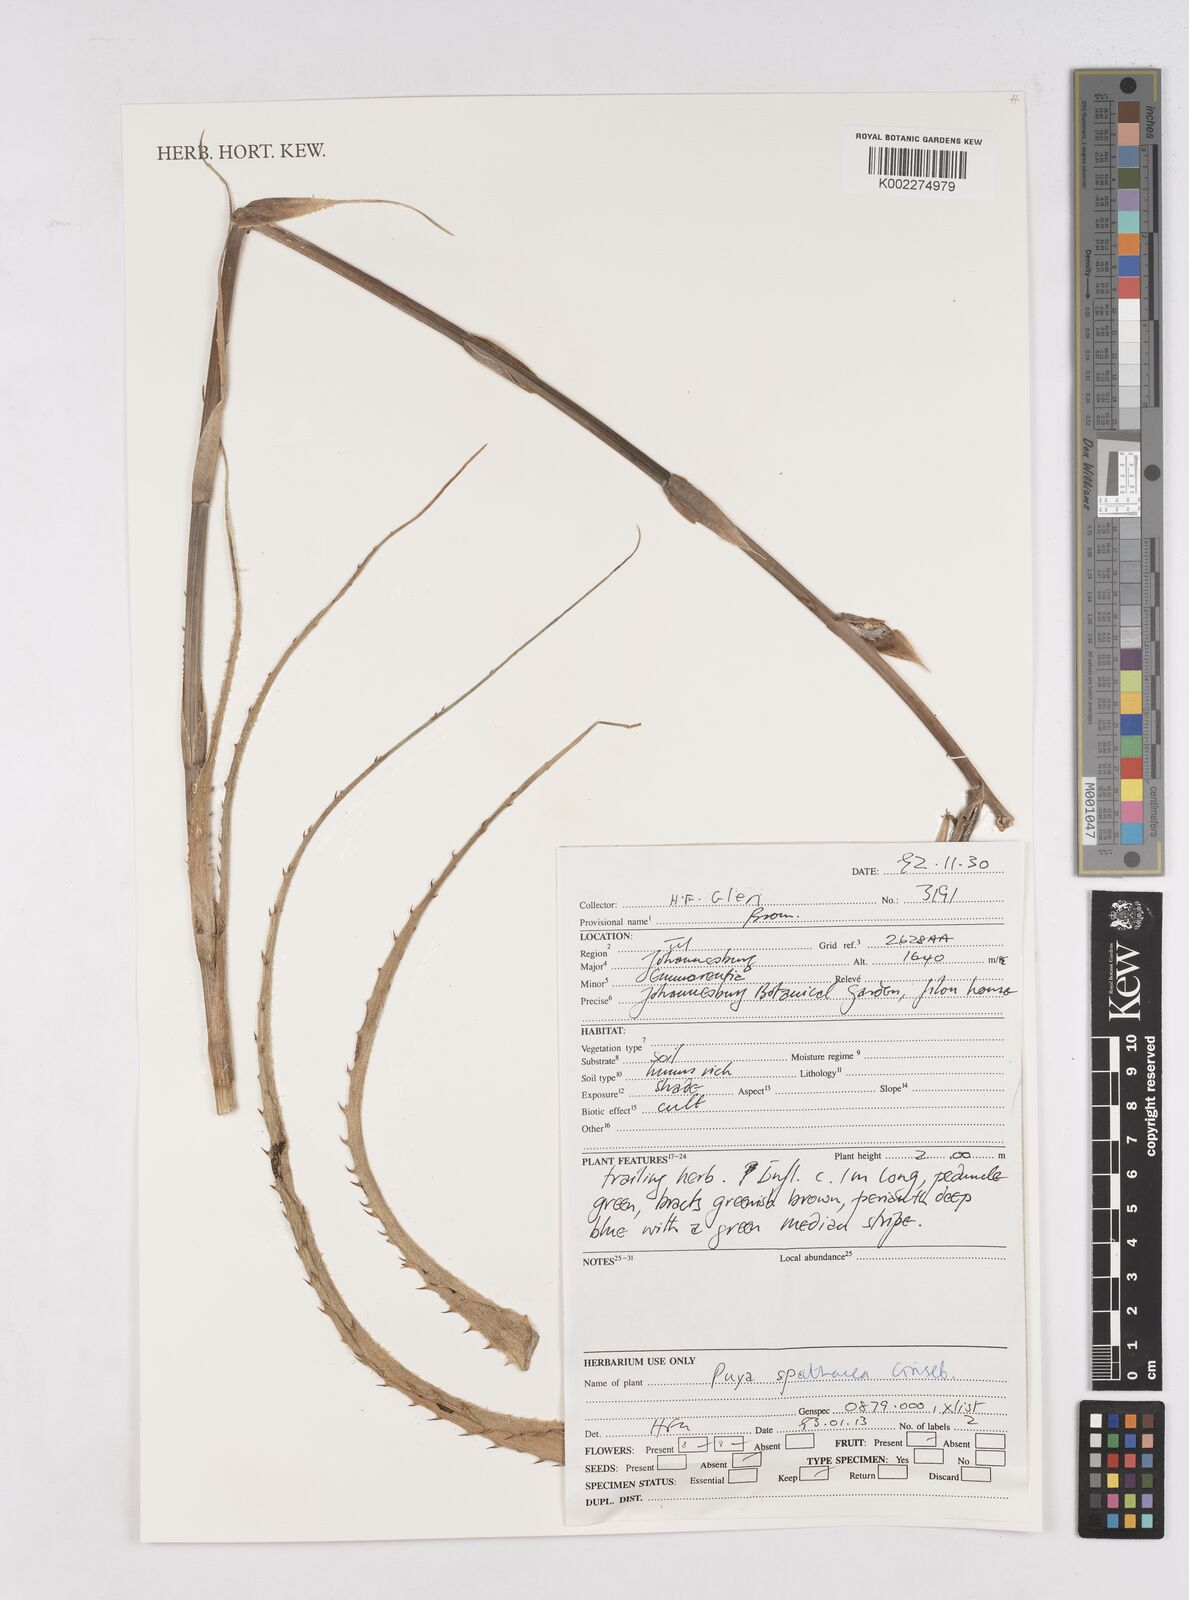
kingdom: Plantae
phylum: Tracheophyta
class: Liliopsida
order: Poales
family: Bromeliaceae
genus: Puya
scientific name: Puya spathacea
